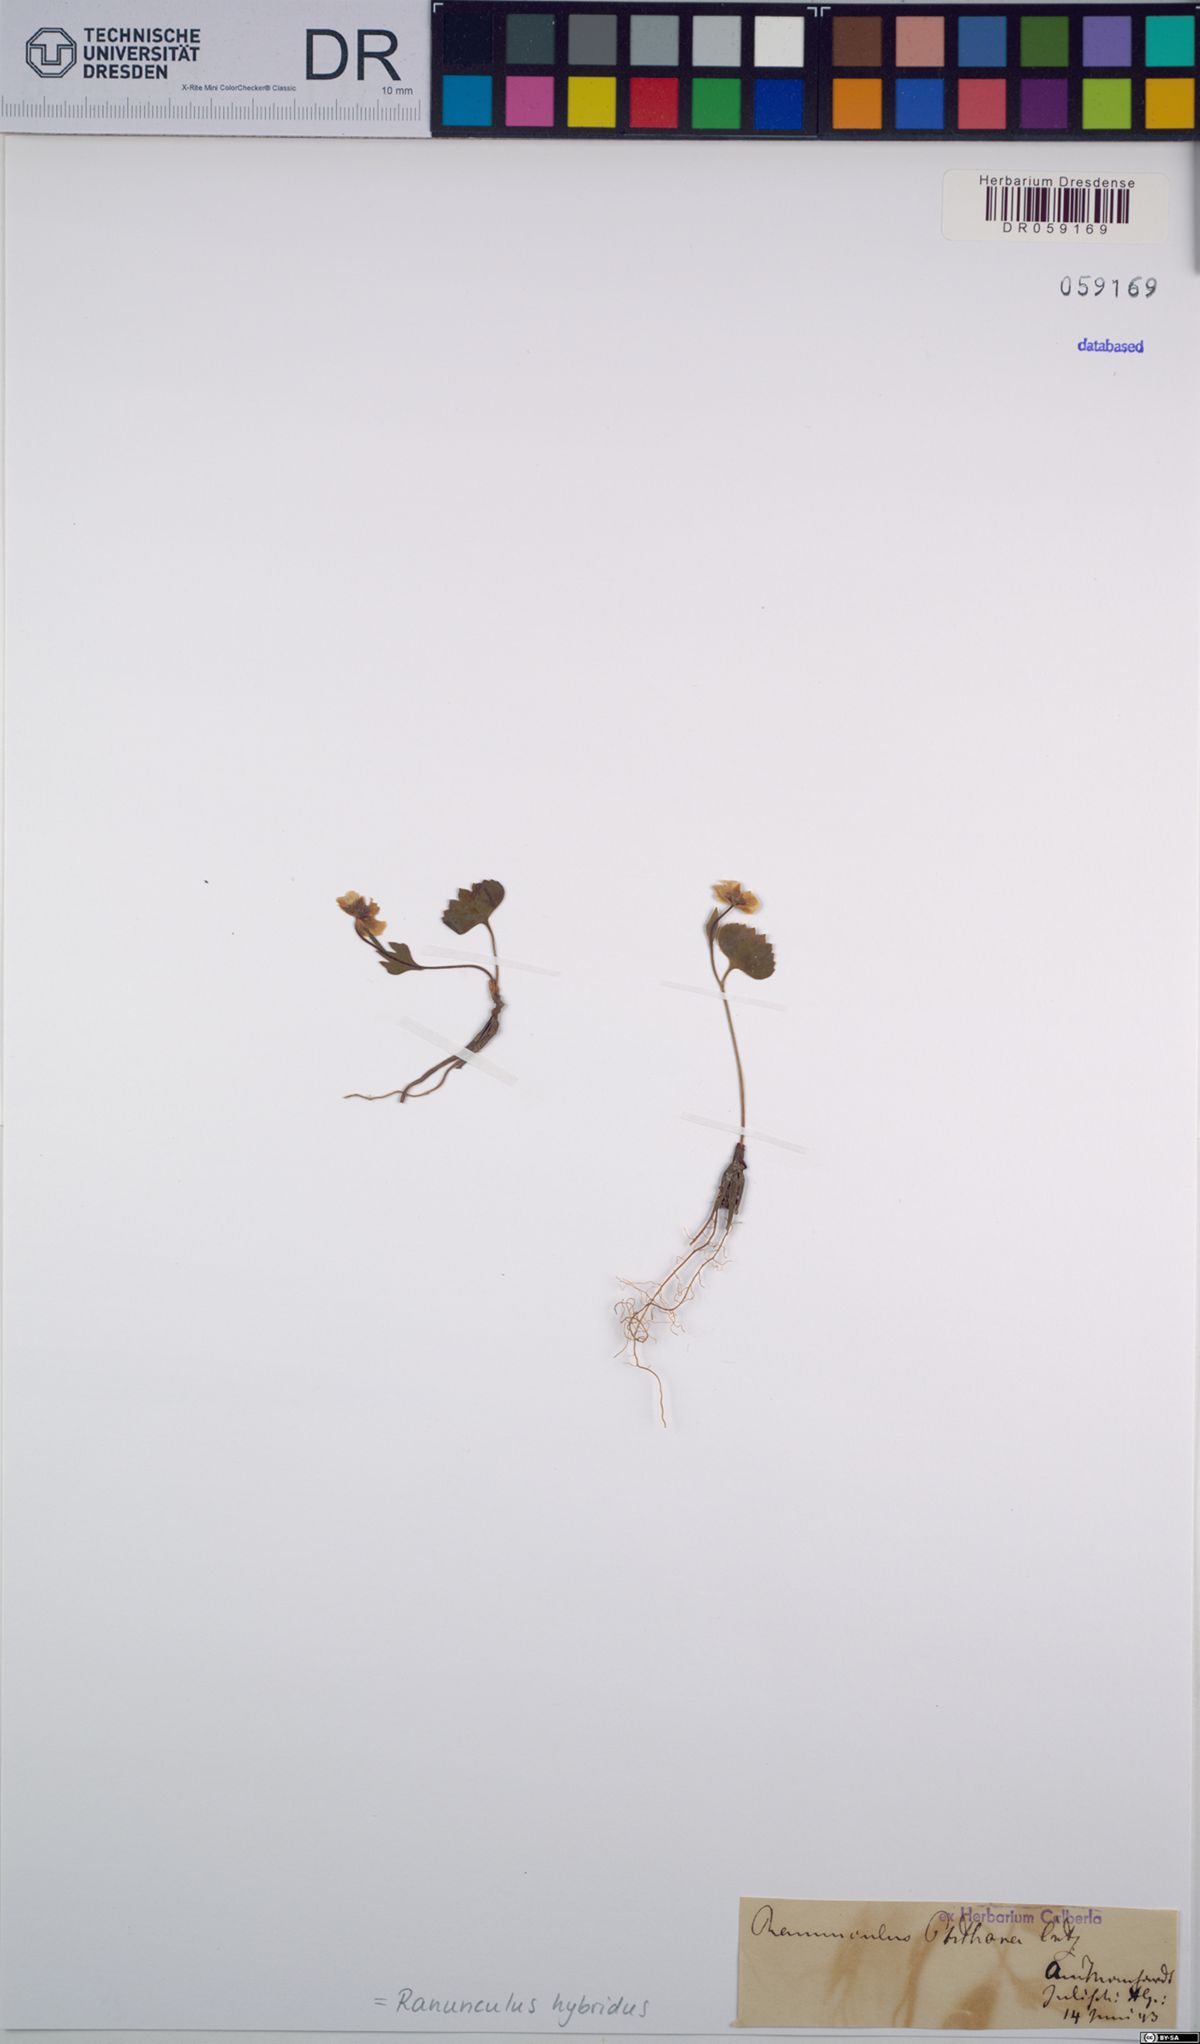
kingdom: Plantae
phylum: Tracheophyta
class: Magnoliopsida
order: Ranunculales
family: Ranunculaceae
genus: Ranunculus
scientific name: Ranunculus hybridus
